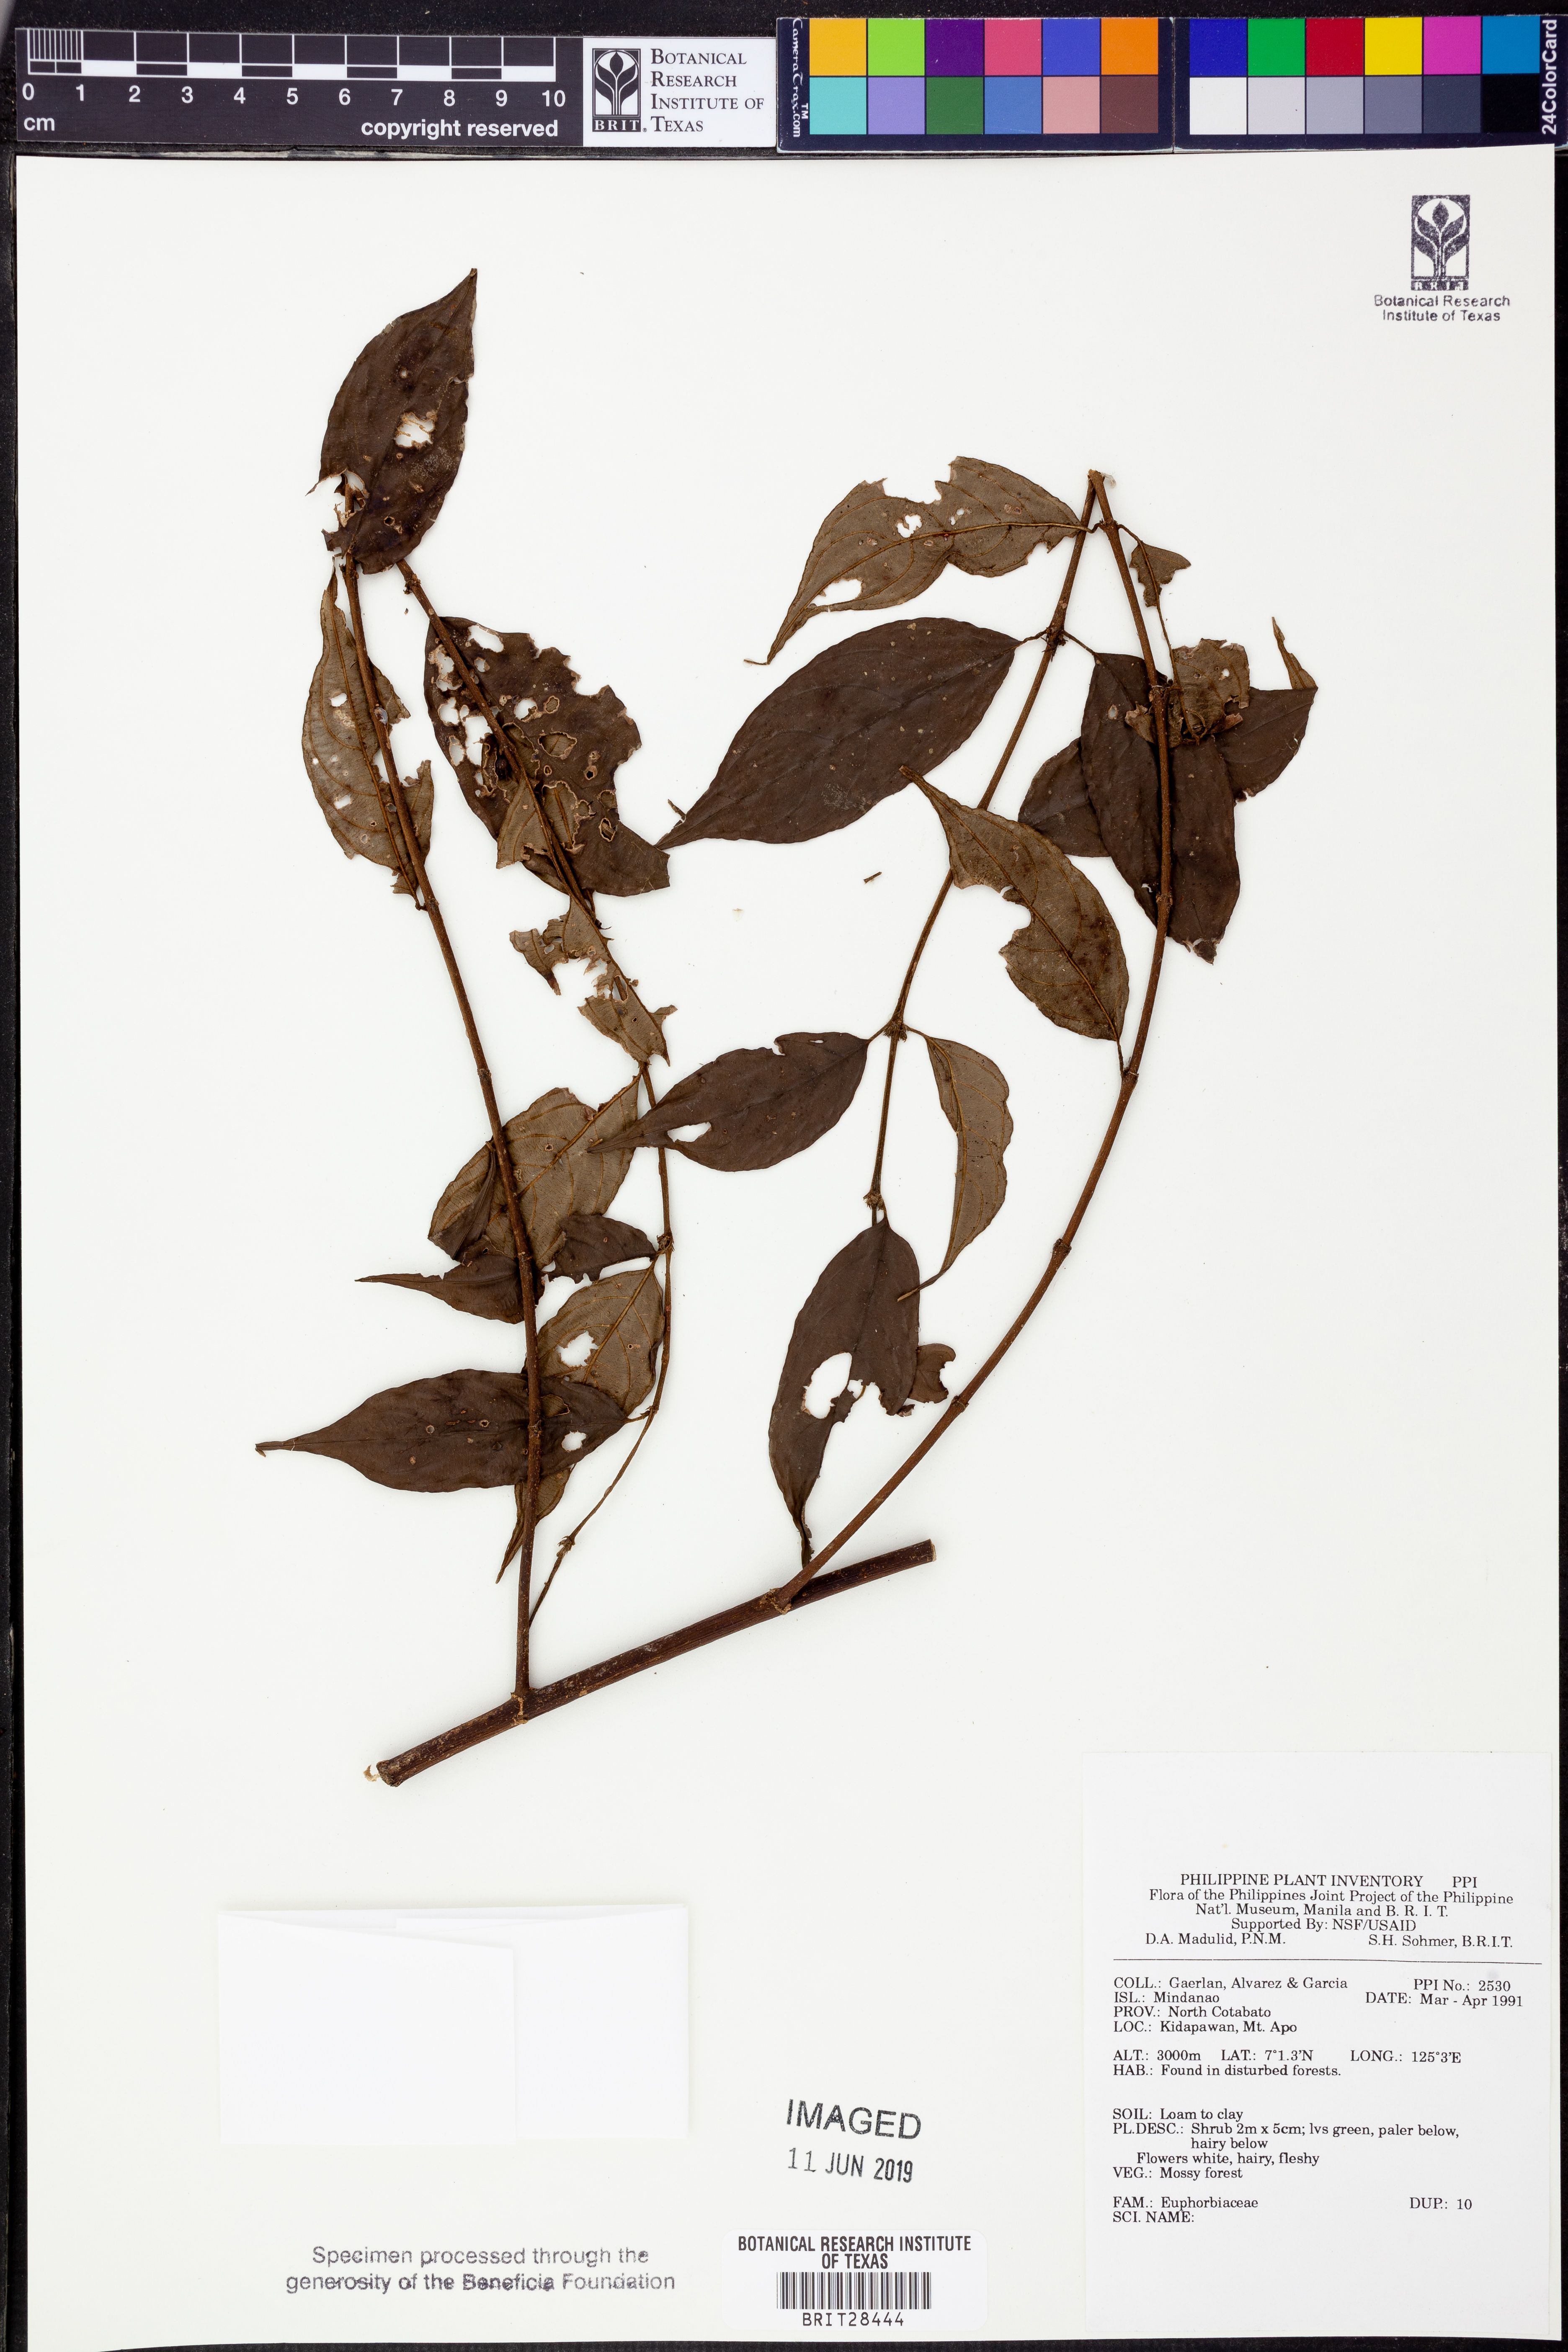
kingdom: Plantae
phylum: Tracheophyta
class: Magnoliopsida
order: Malpighiales
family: Euphorbiaceae
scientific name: Euphorbiaceae
